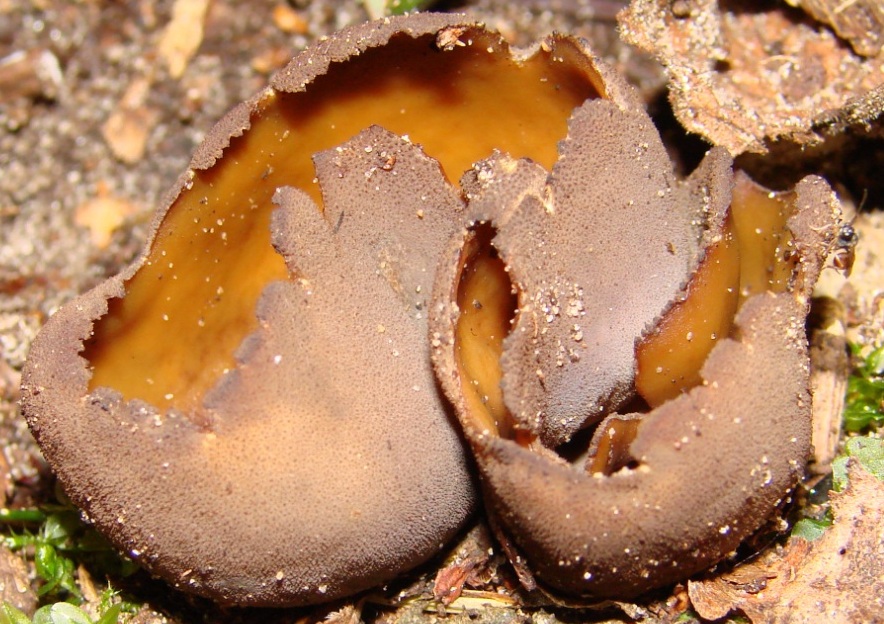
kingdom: Fungi
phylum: Ascomycota
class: Pezizomycetes
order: Pezizales
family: Otideaceae
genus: Otidea
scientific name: Otidea bufonia
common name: brun ørebæger
